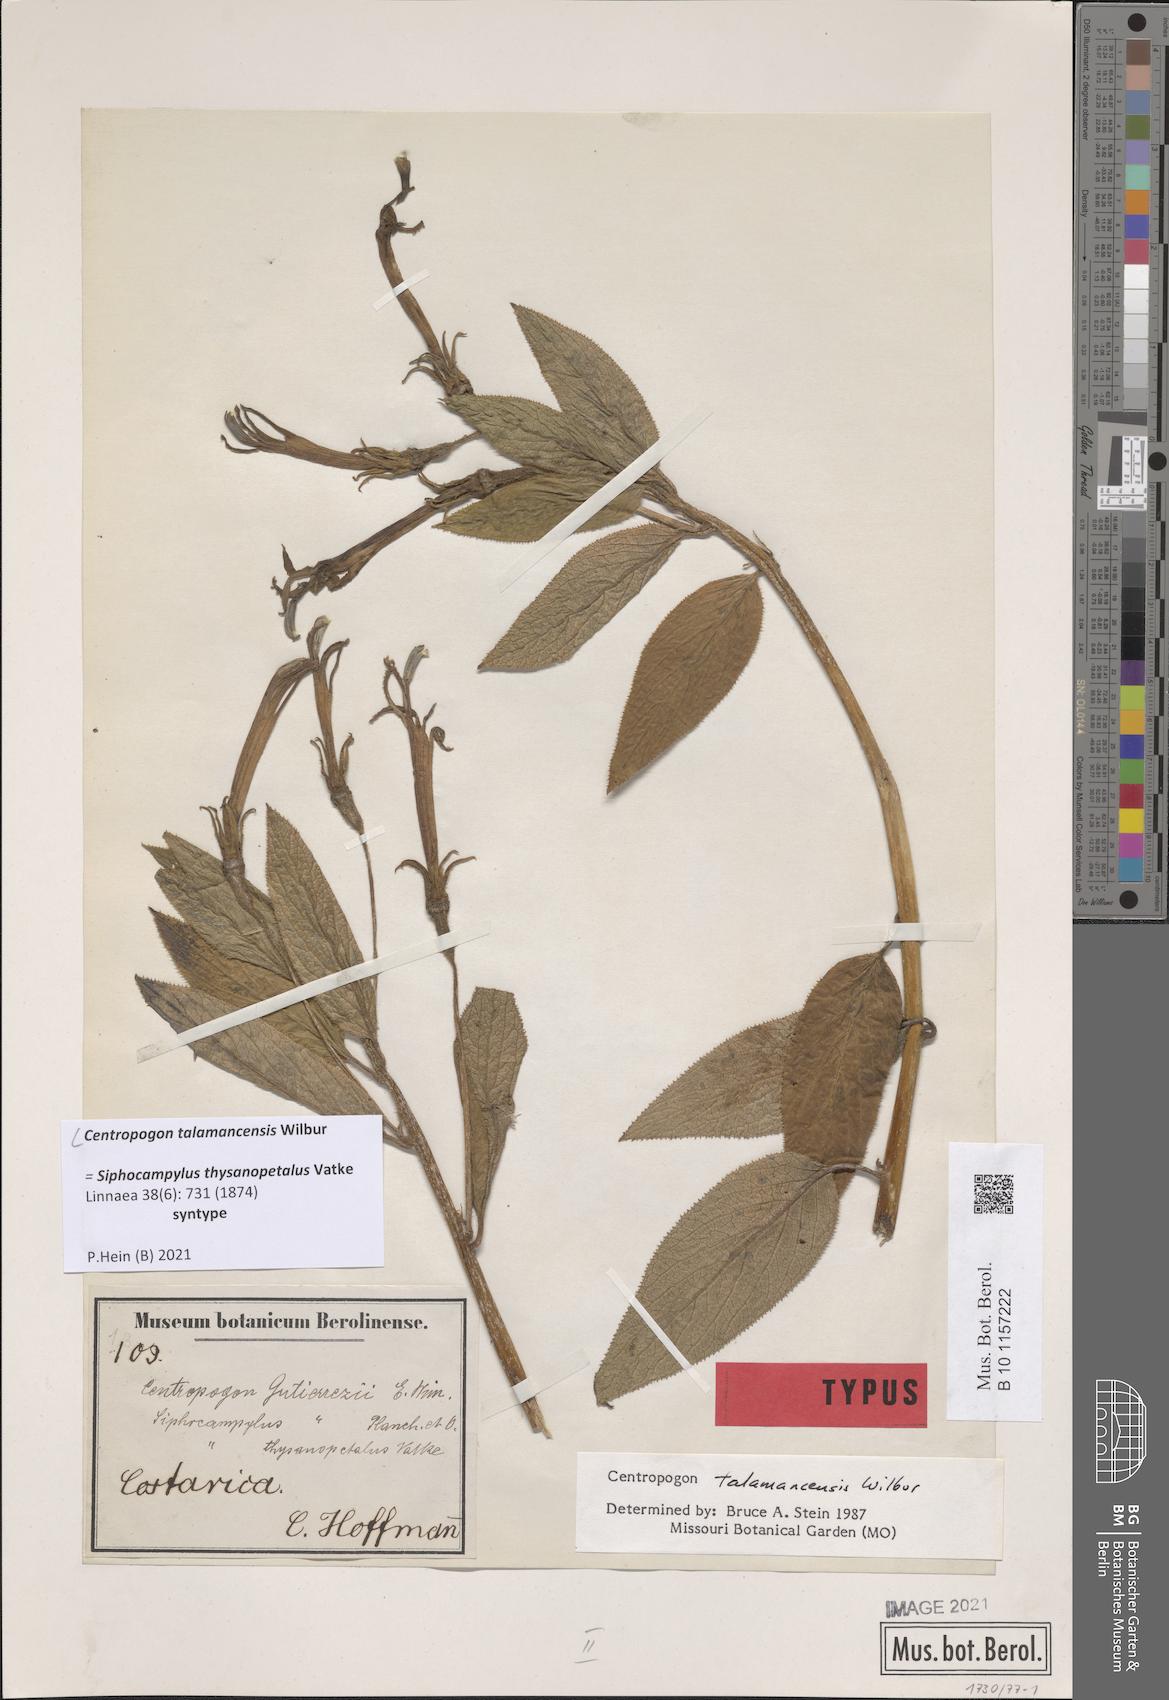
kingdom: Plantae
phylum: Tracheophyta
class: Magnoliopsida
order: Asterales
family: Campanulaceae
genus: Centropogon
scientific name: Centropogon talamancensis
